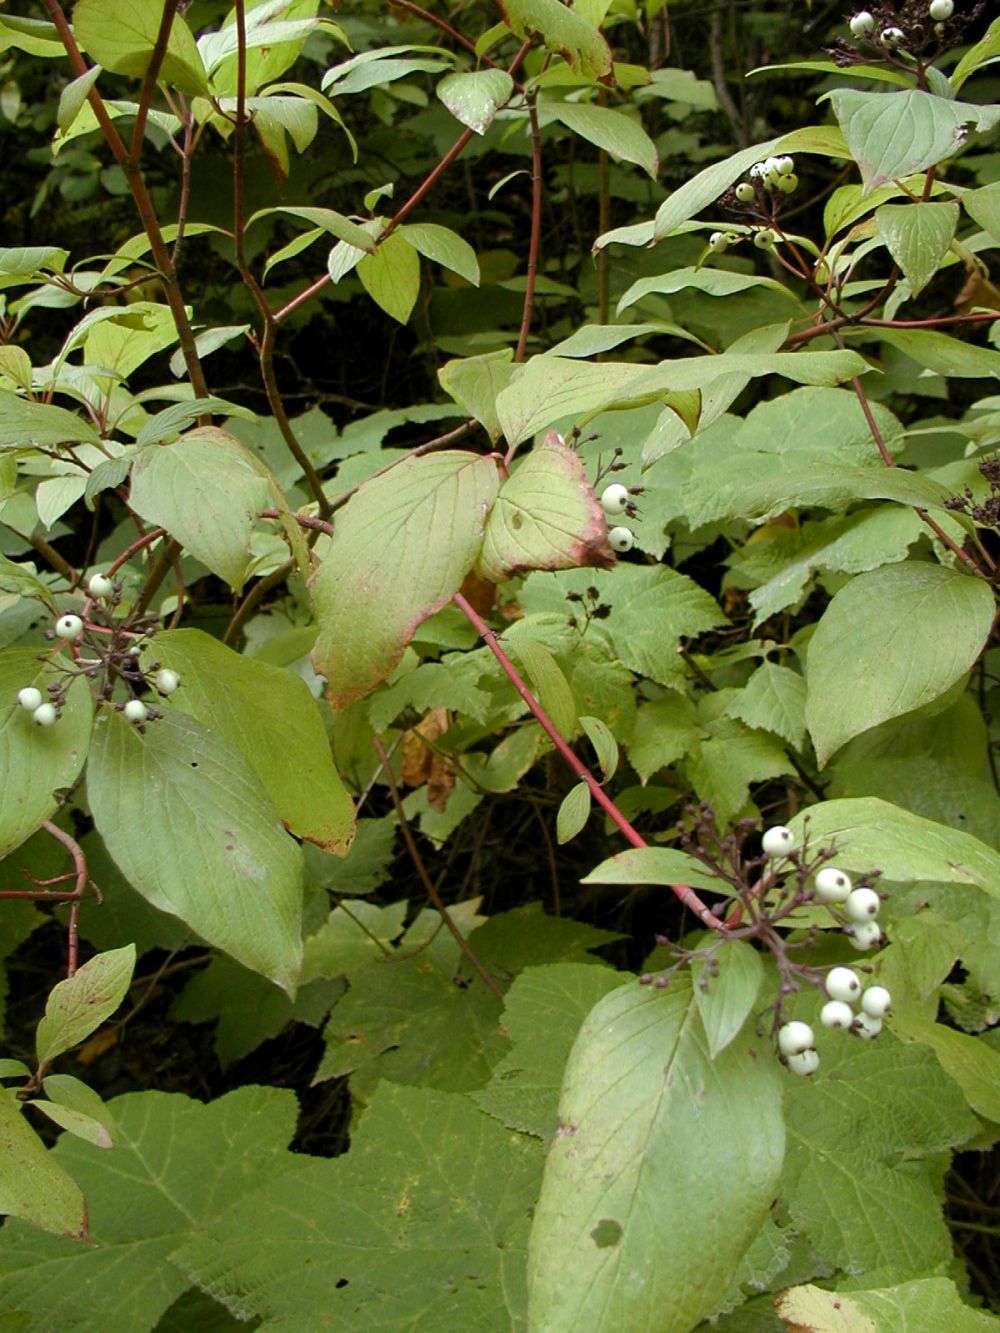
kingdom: Plantae
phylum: Tracheophyta
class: Magnoliopsida
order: Cornales
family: Cornaceae
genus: Cornus
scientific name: Cornus sericea
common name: Red-osier dogwood
